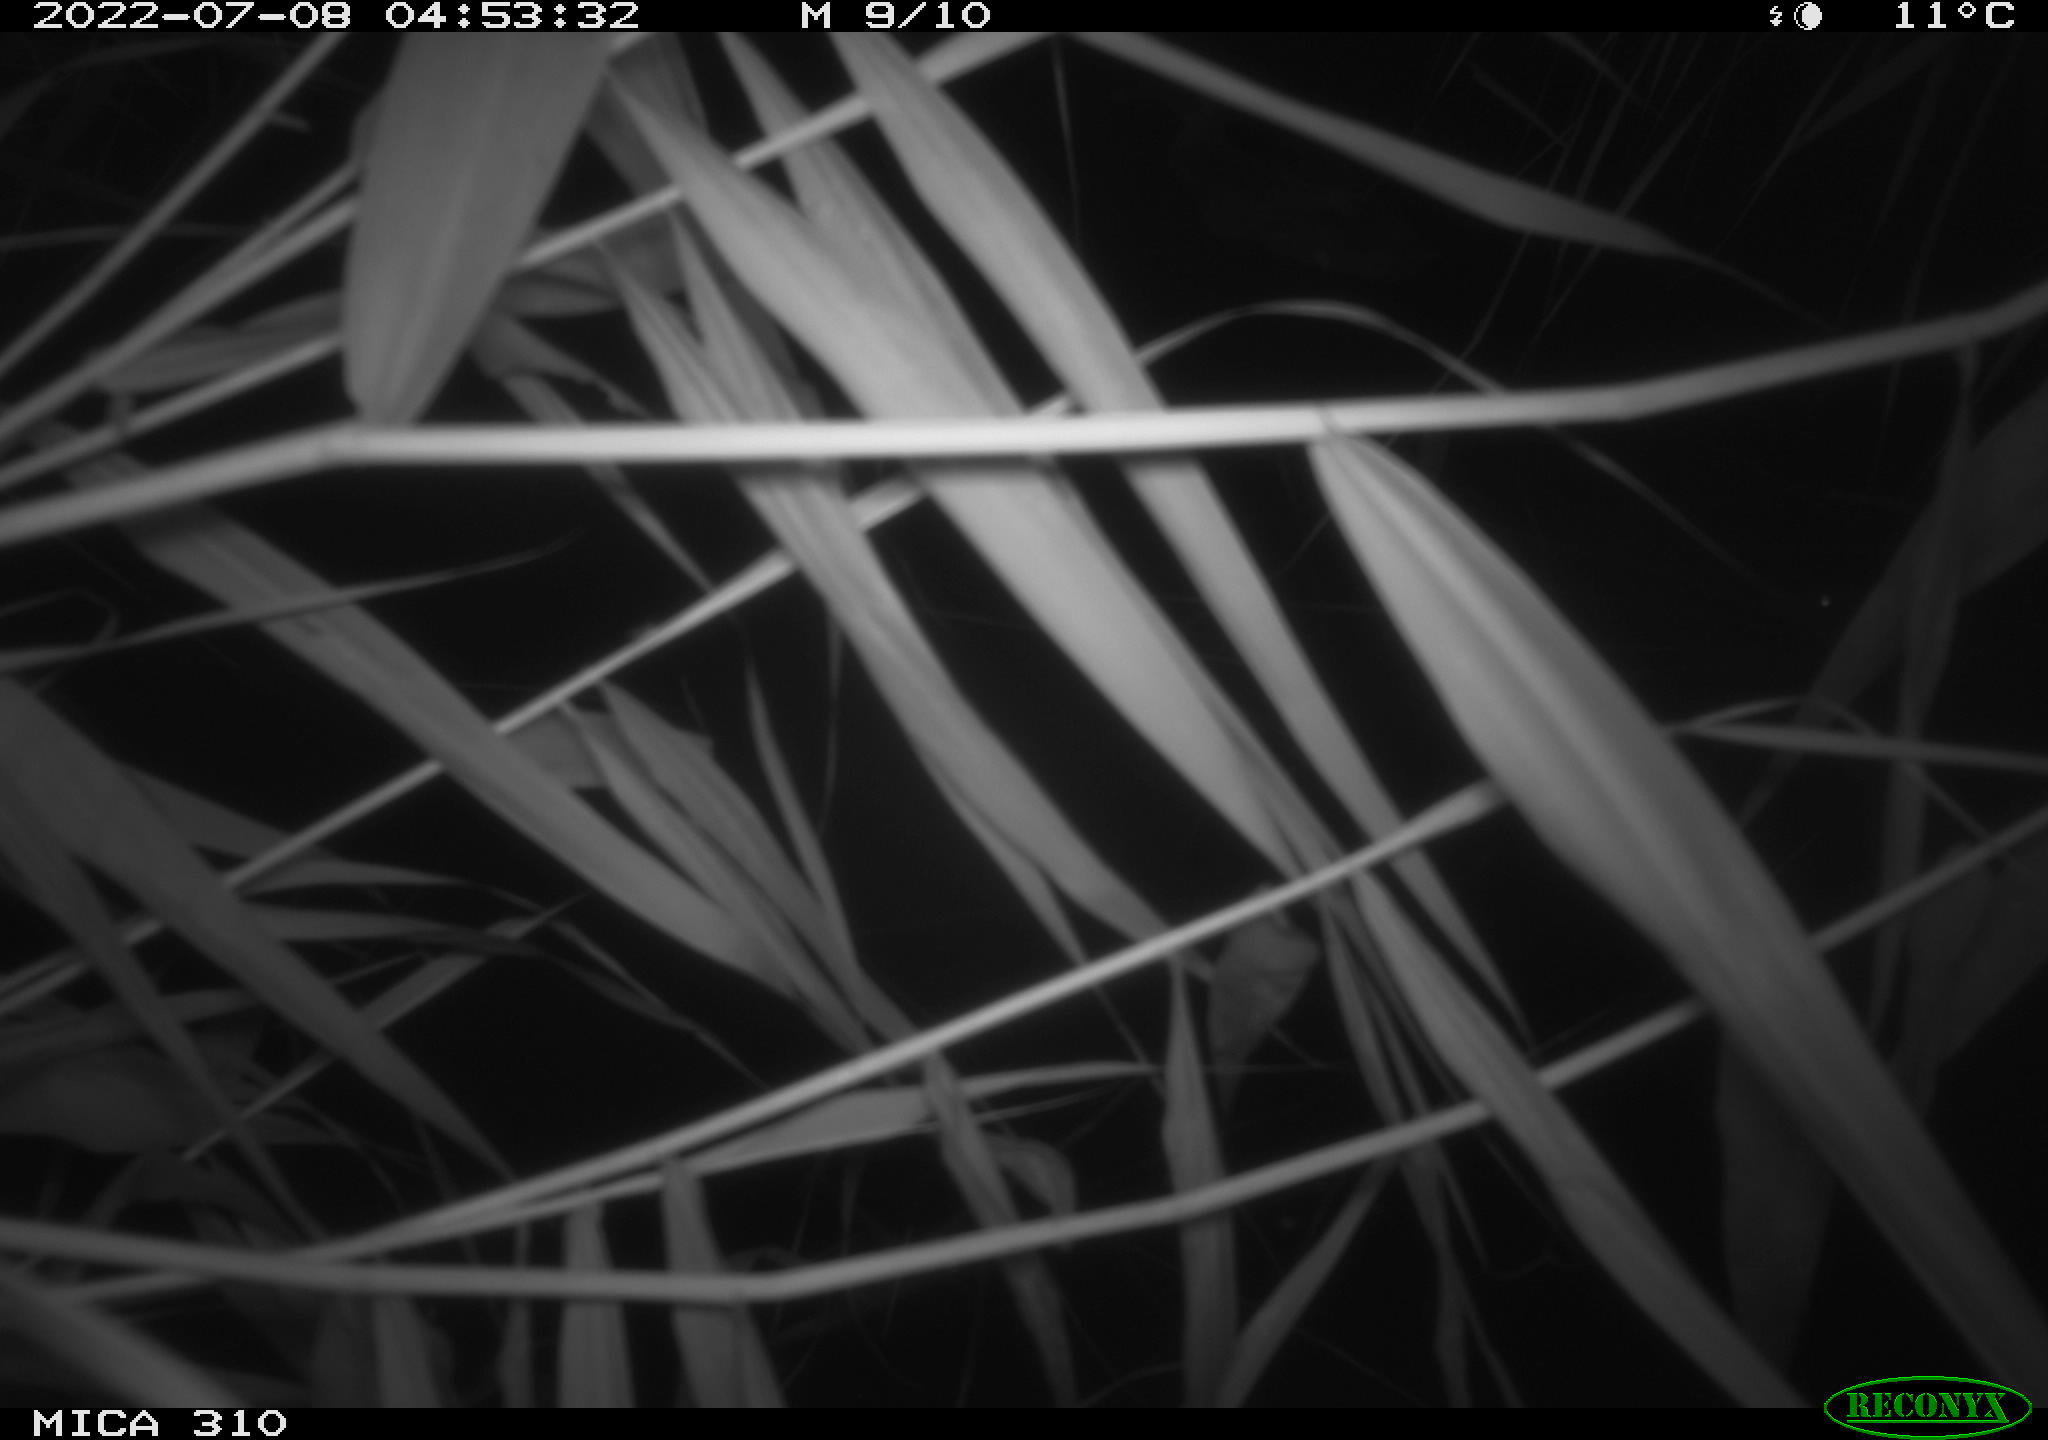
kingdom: Animalia
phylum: Chordata
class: Aves
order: Anseriformes
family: Anatidae
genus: Anas
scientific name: Anas platyrhynchos
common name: Mallard
